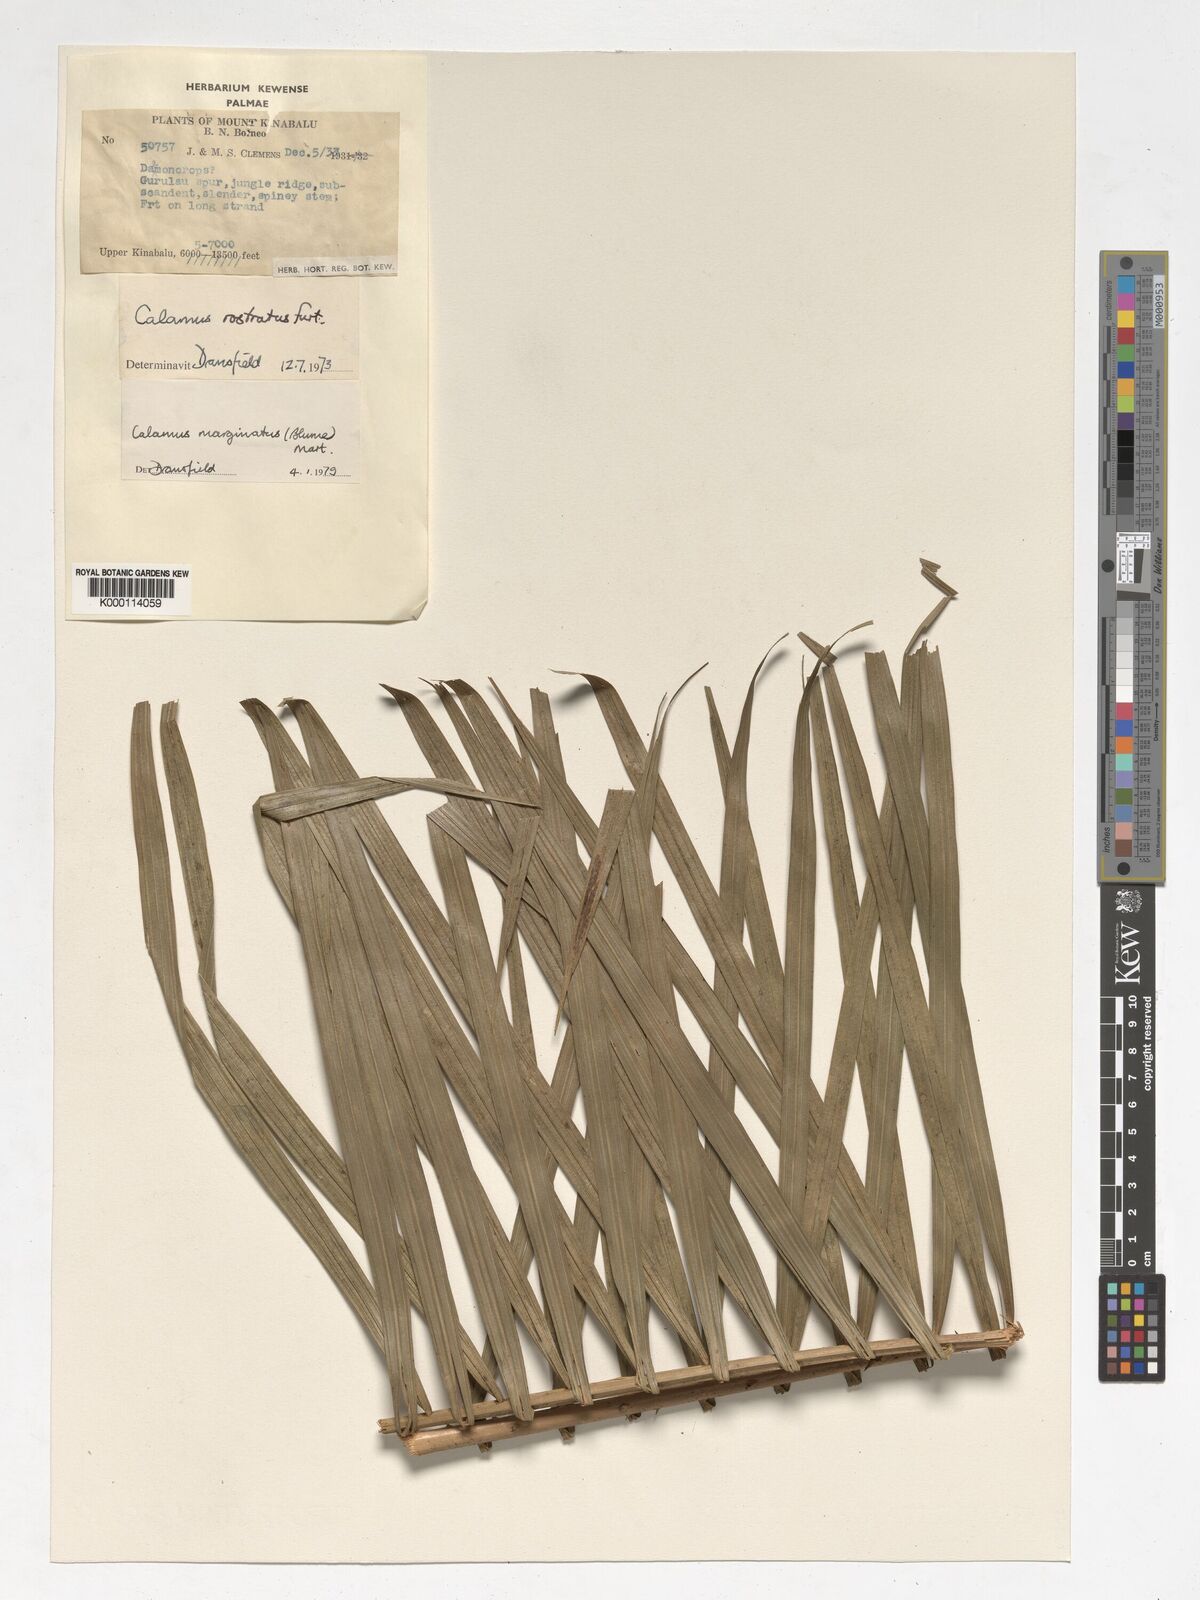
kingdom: Plantae
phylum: Tracheophyta
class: Liliopsida
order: Arecales
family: Arecaceae
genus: Calamus
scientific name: Calamus
